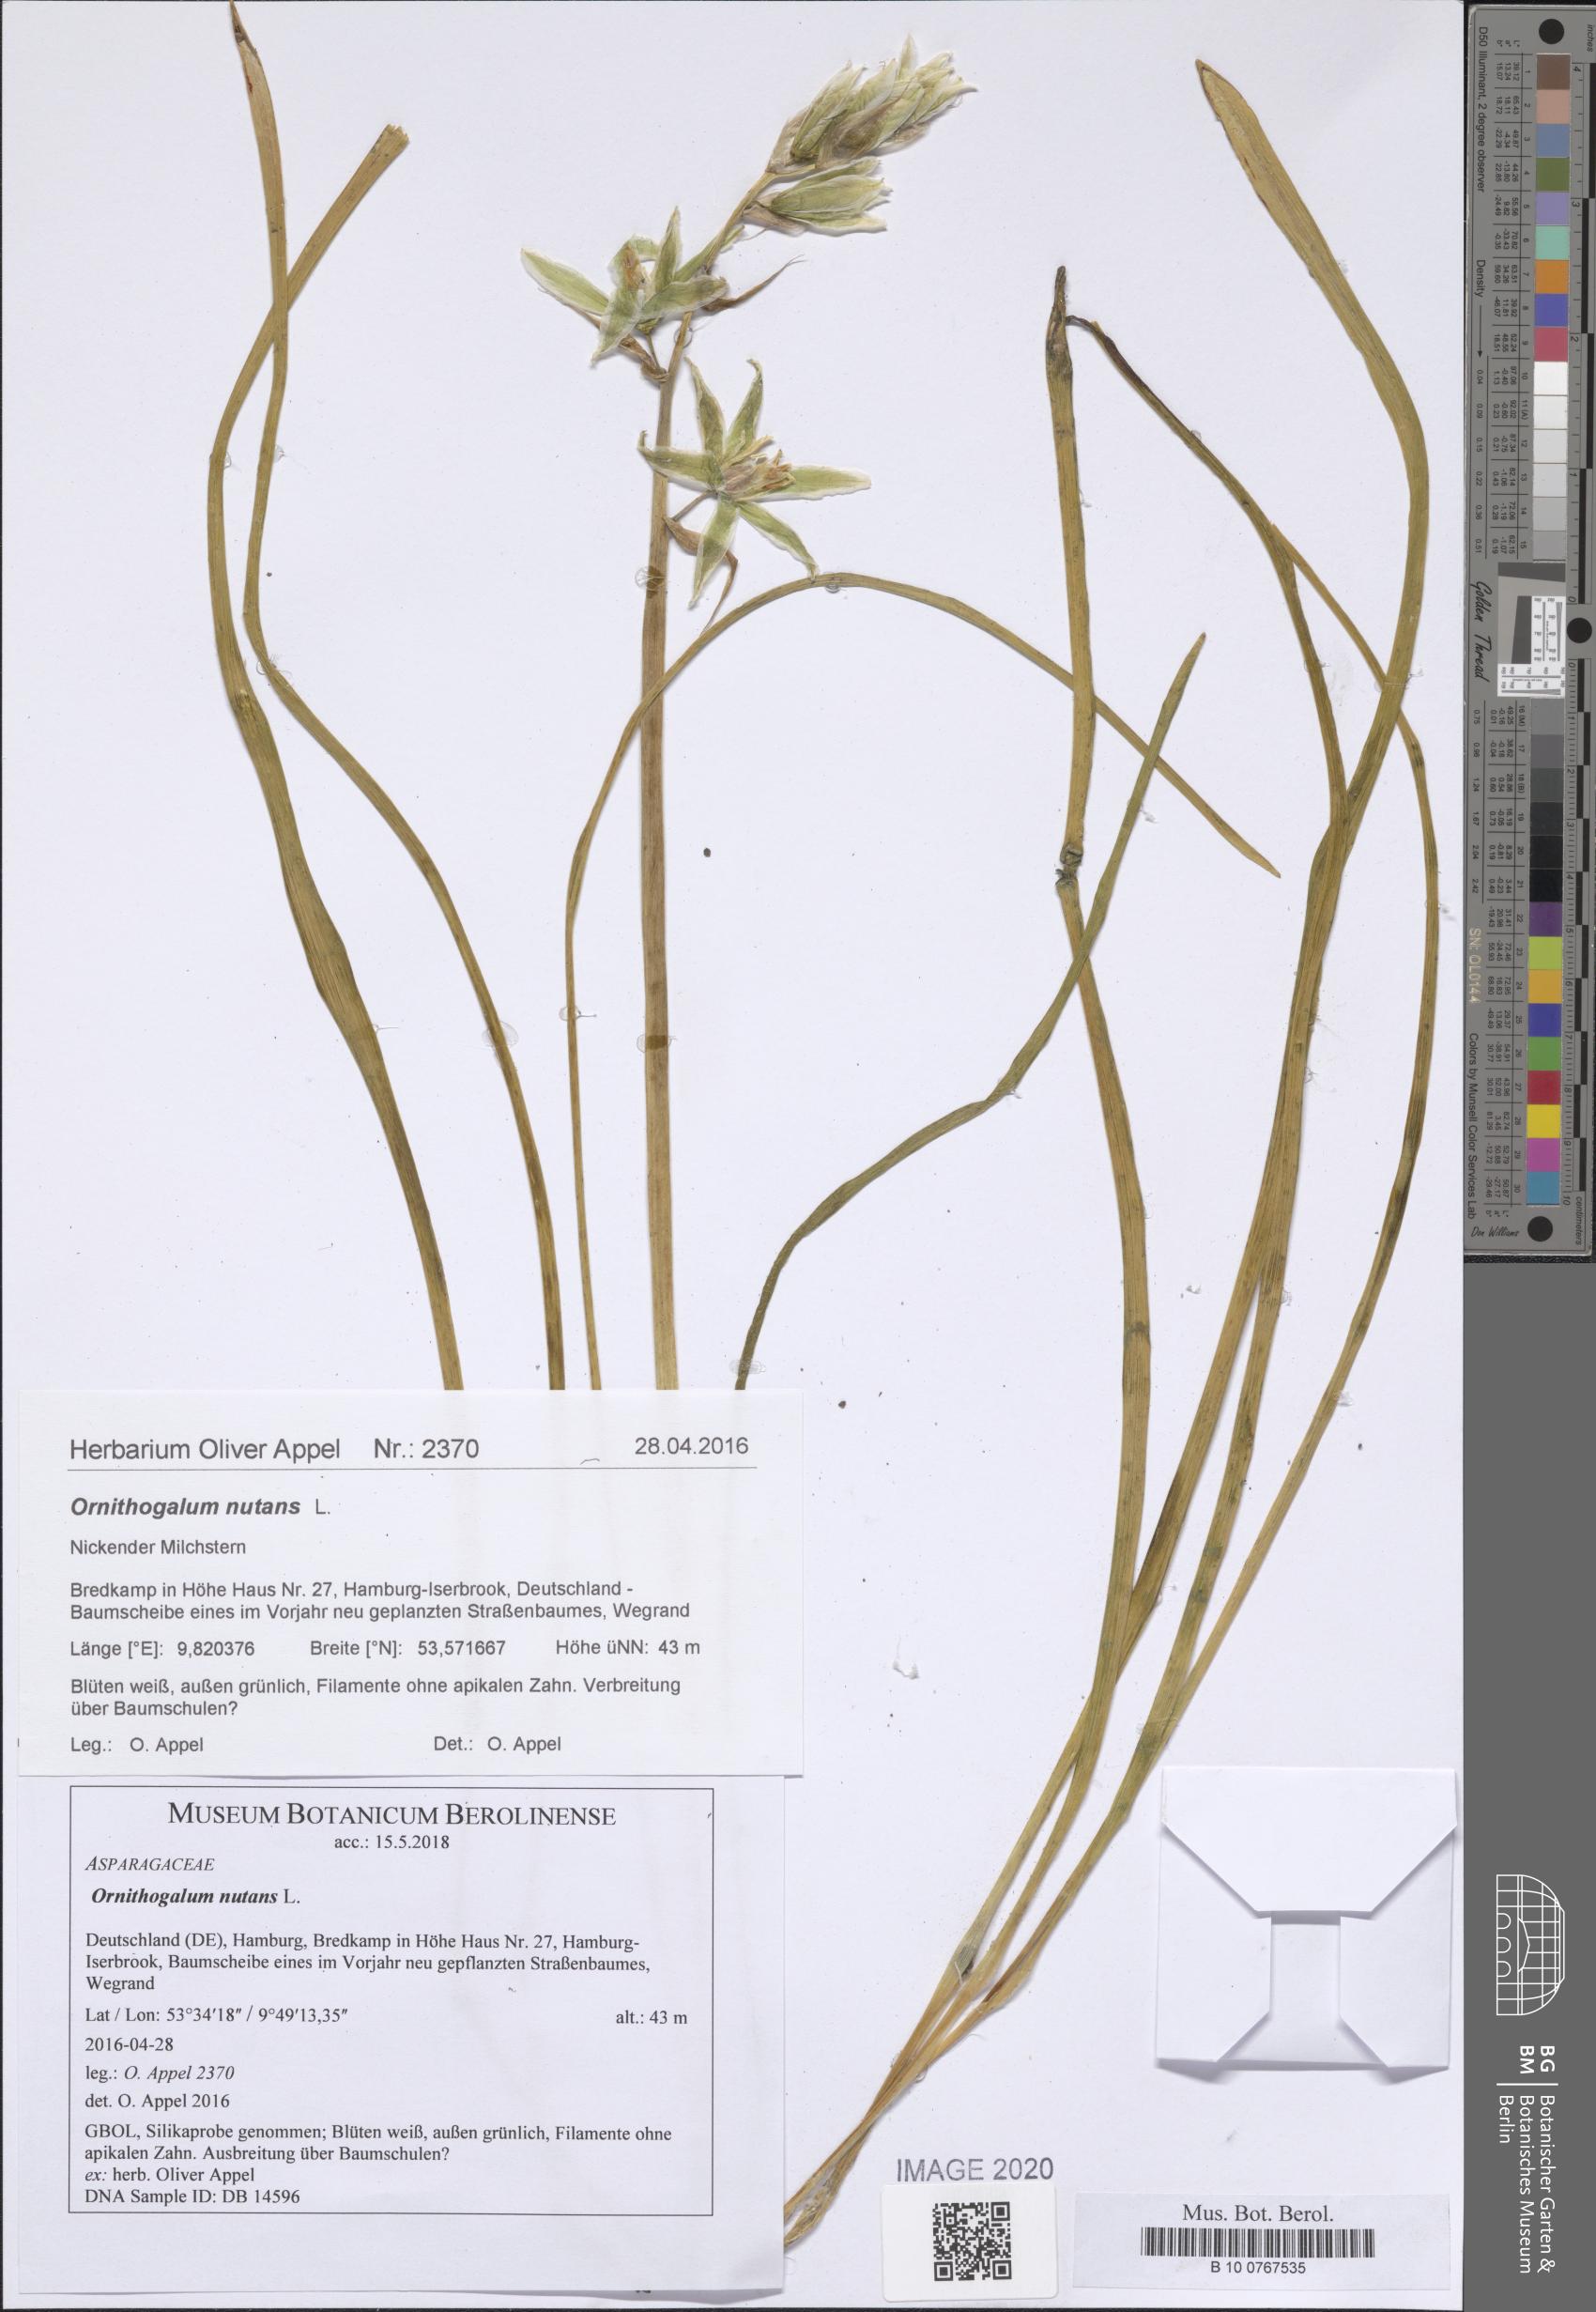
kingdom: Plantae
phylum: Tracheophyta
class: Liliopsida
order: Asparagales
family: Asparagaceae
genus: Ornithogalum
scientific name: Ornithogalum nutans
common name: Drooping star-of-bethlehem
